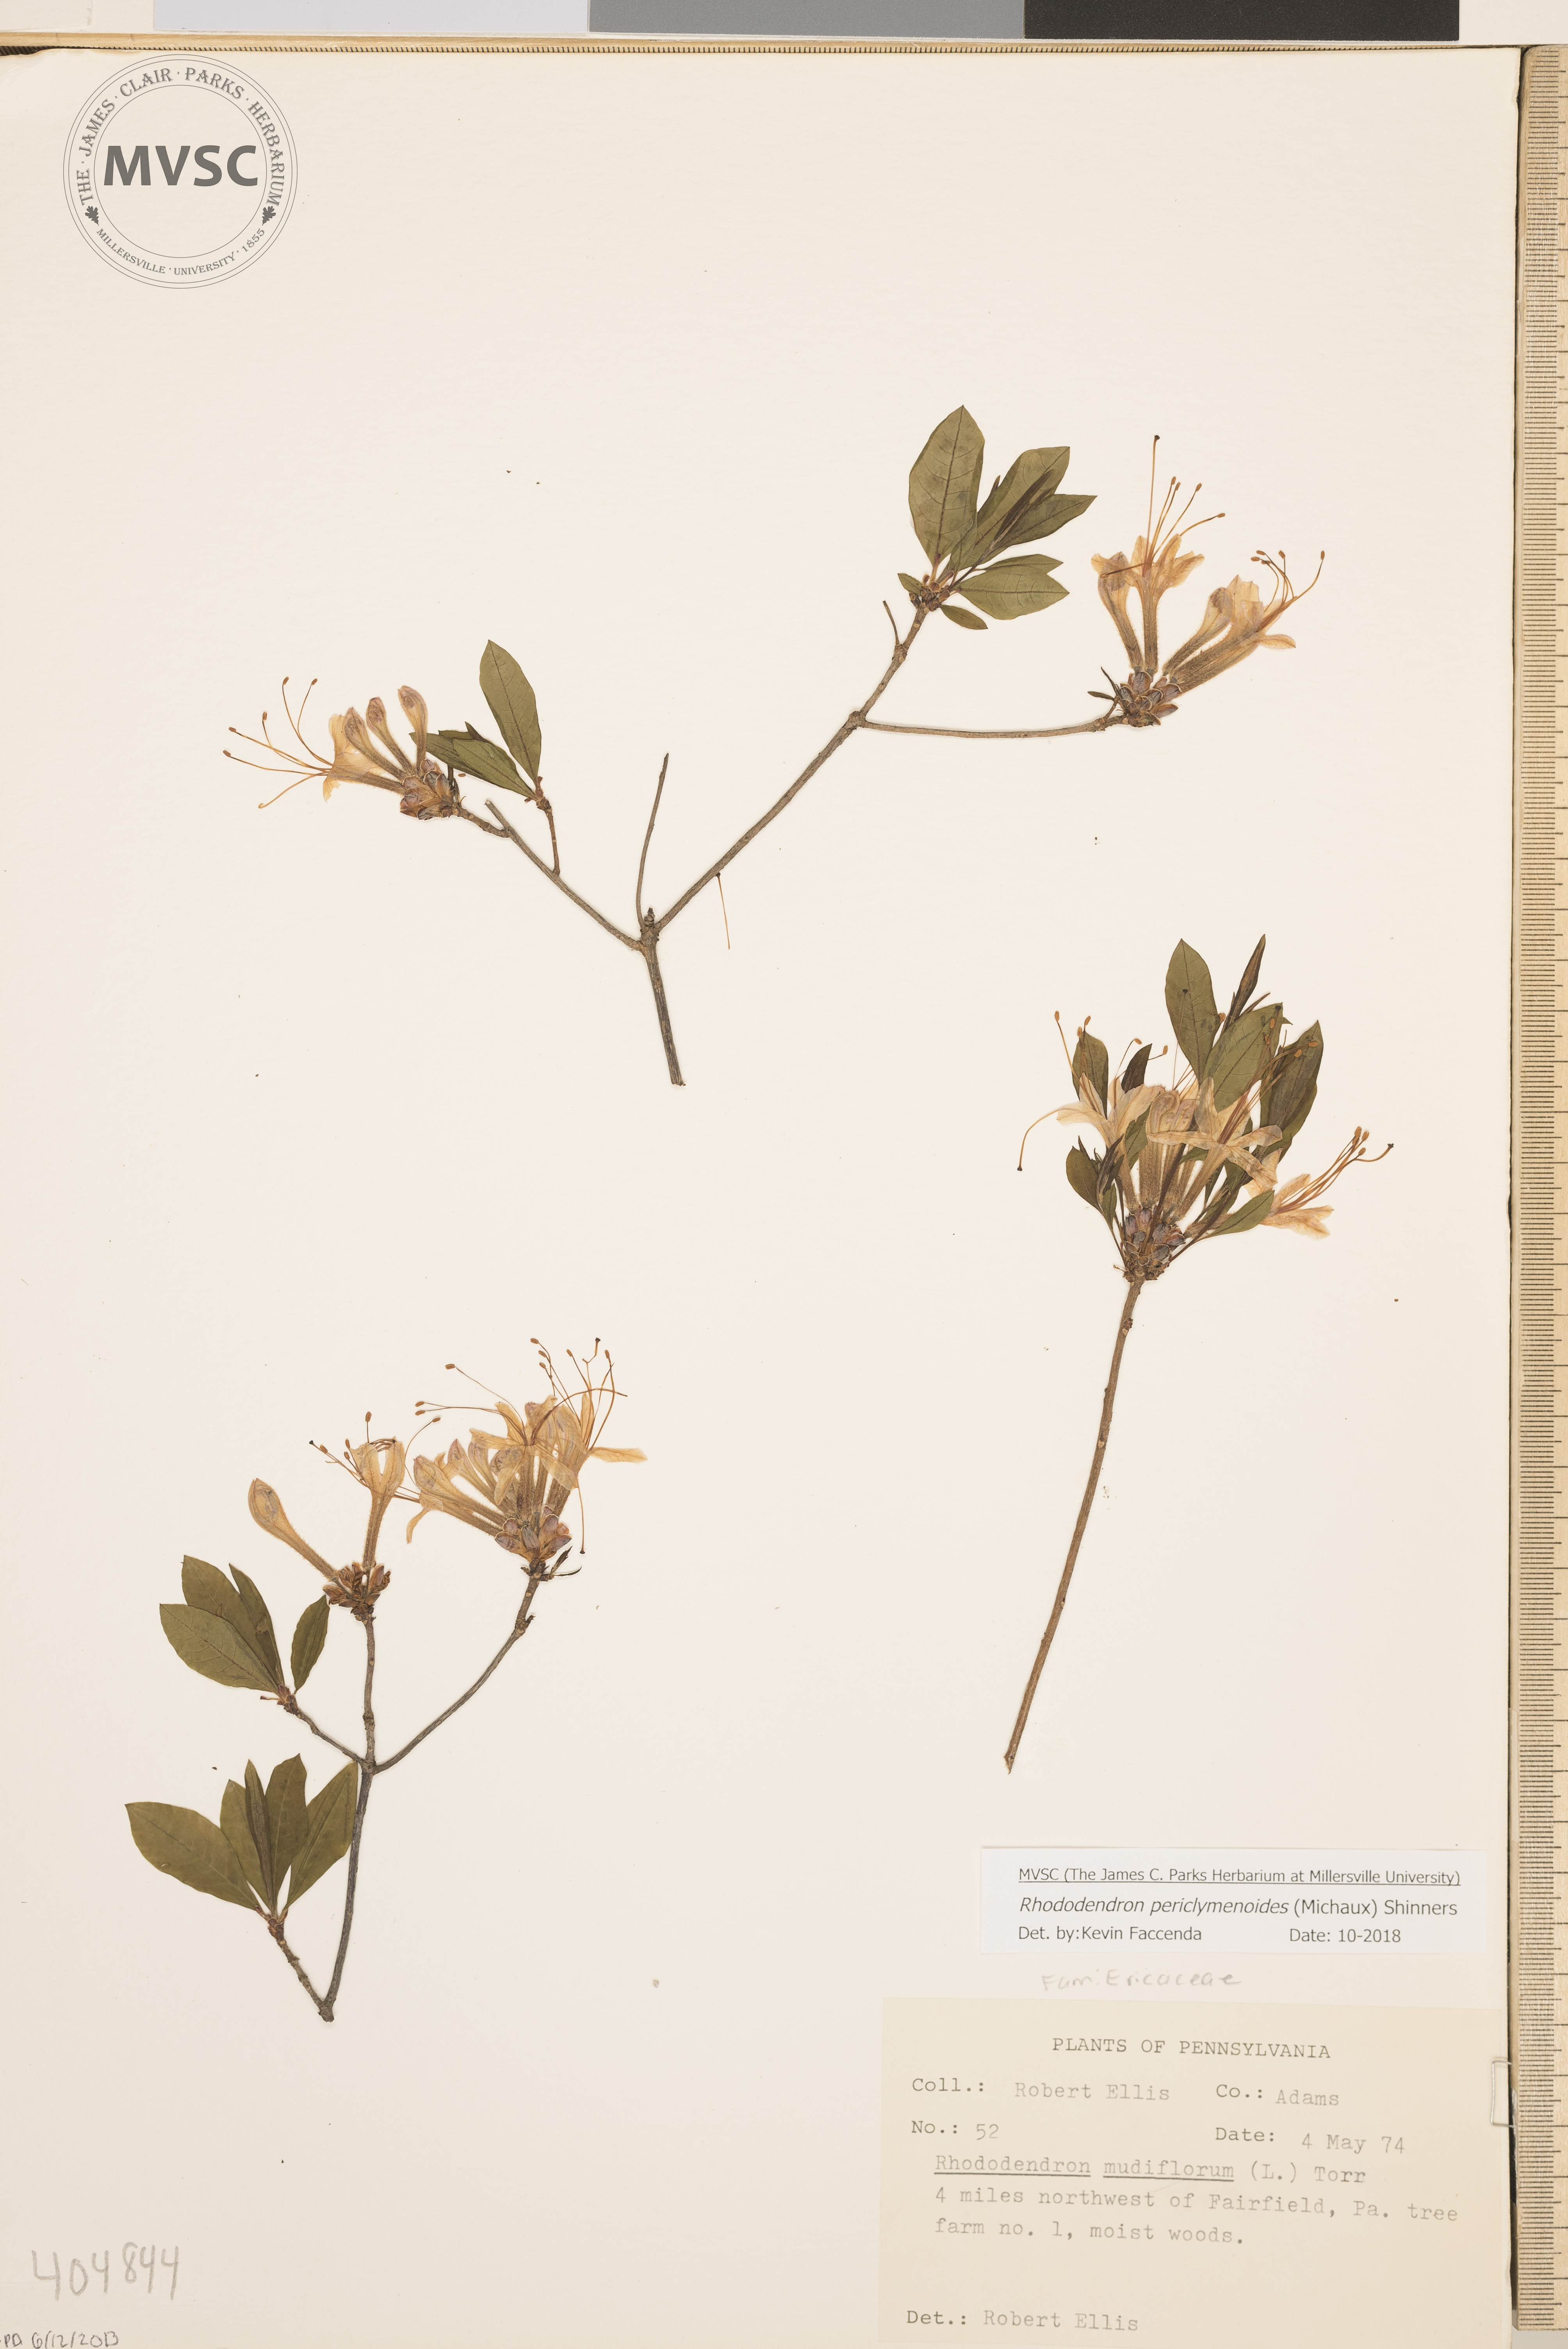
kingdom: Plantae
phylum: Tracheophyta
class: Magnoliopsida
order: Ericales
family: Ericaceae
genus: Rhododendron
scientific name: Rhododendron periclymenoides
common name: Election-pink
